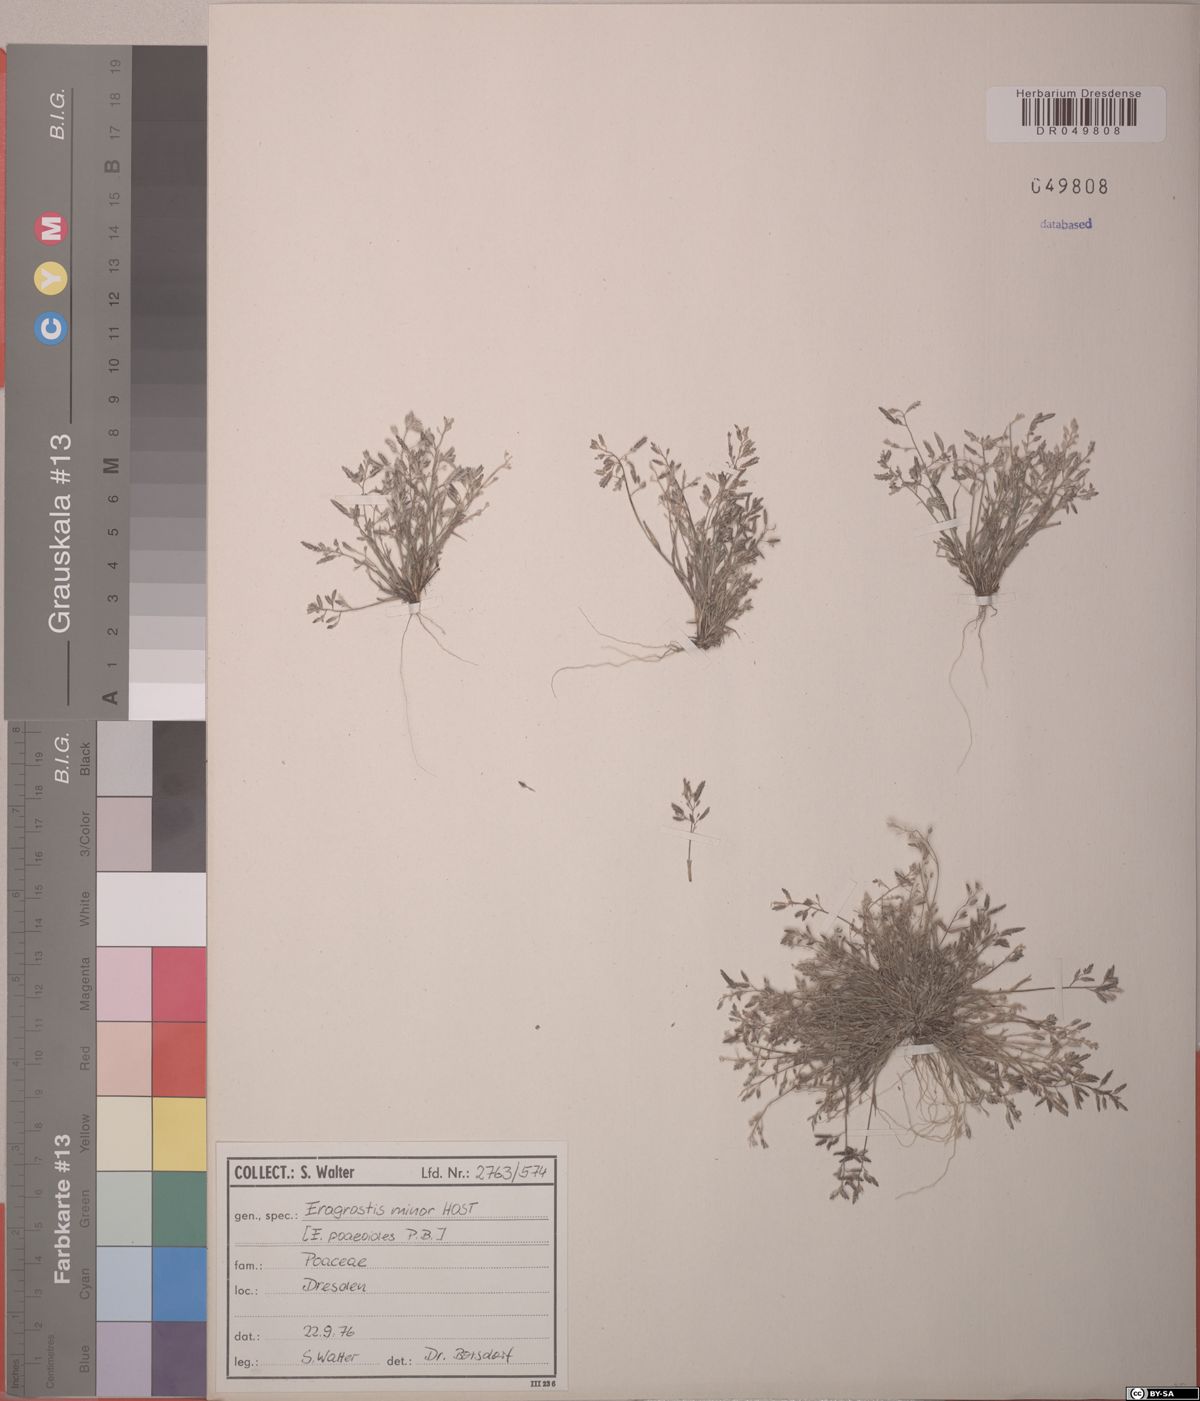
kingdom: Plantae
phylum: Tracheophyta
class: Liliopsida
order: Poales
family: Poaceae
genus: Eragrostis
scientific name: Eragrostis minor
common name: Small love-grass
